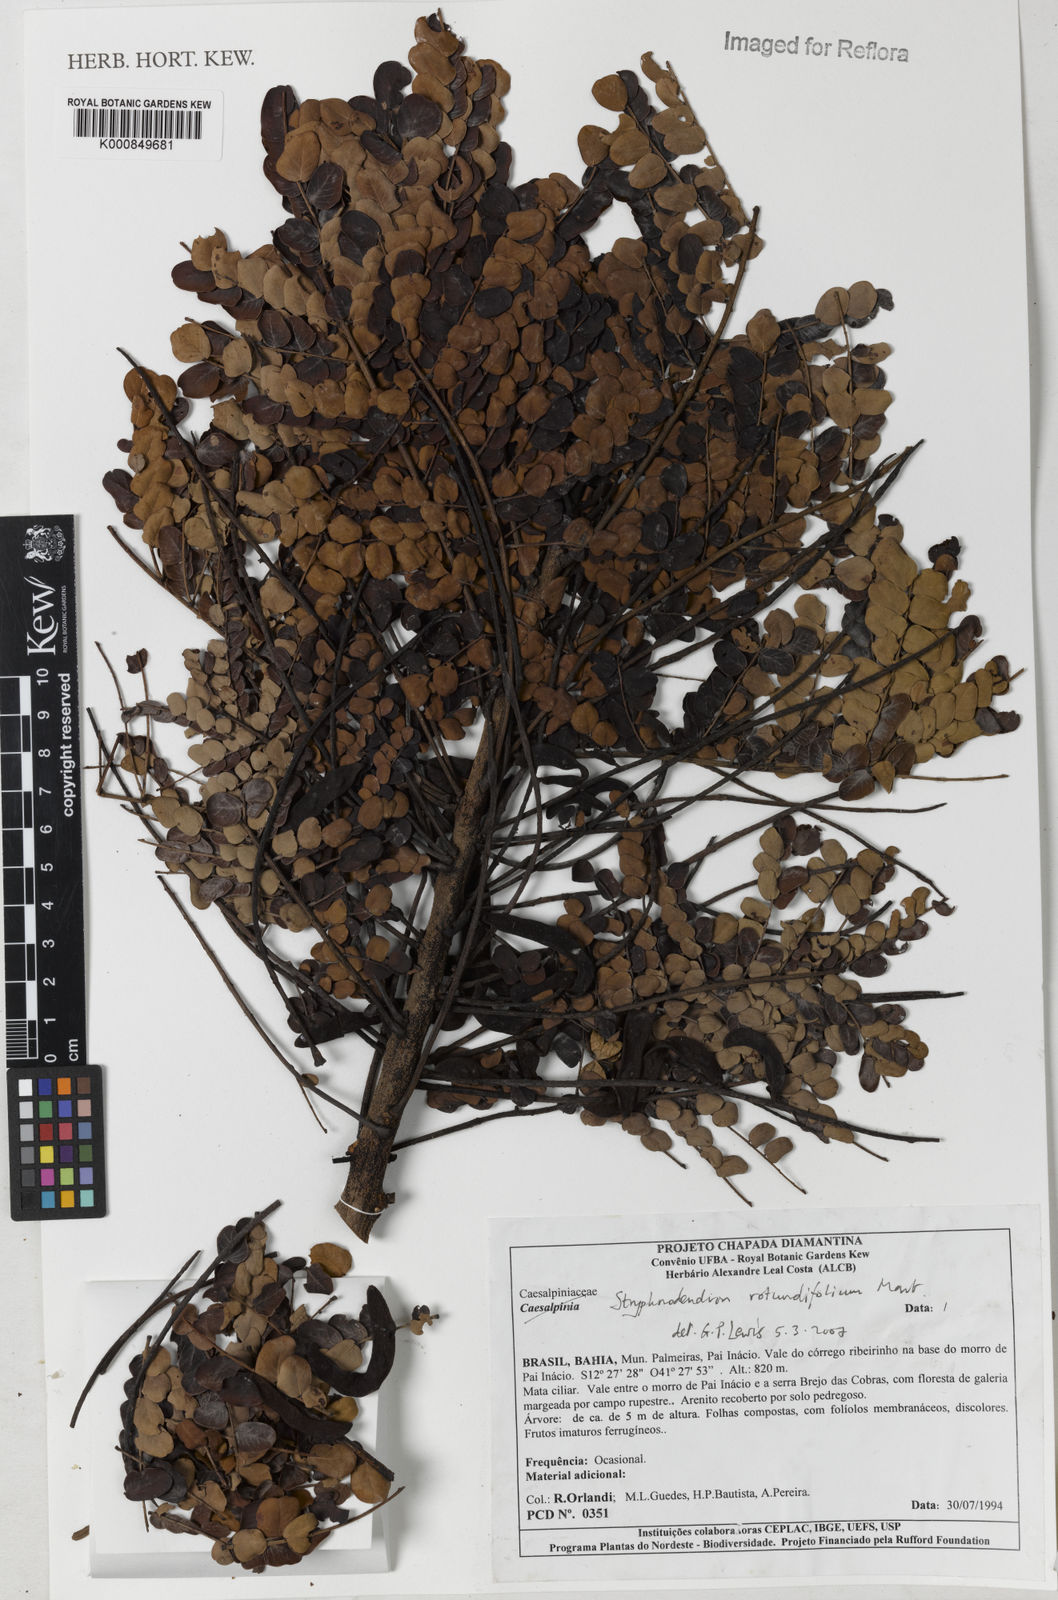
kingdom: Plantae
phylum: Tracheophyta
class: Magnoliopsida
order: Fabales
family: Fabaceae
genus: Stryphnodendron
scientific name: Stryphnodendron rotundifolium
